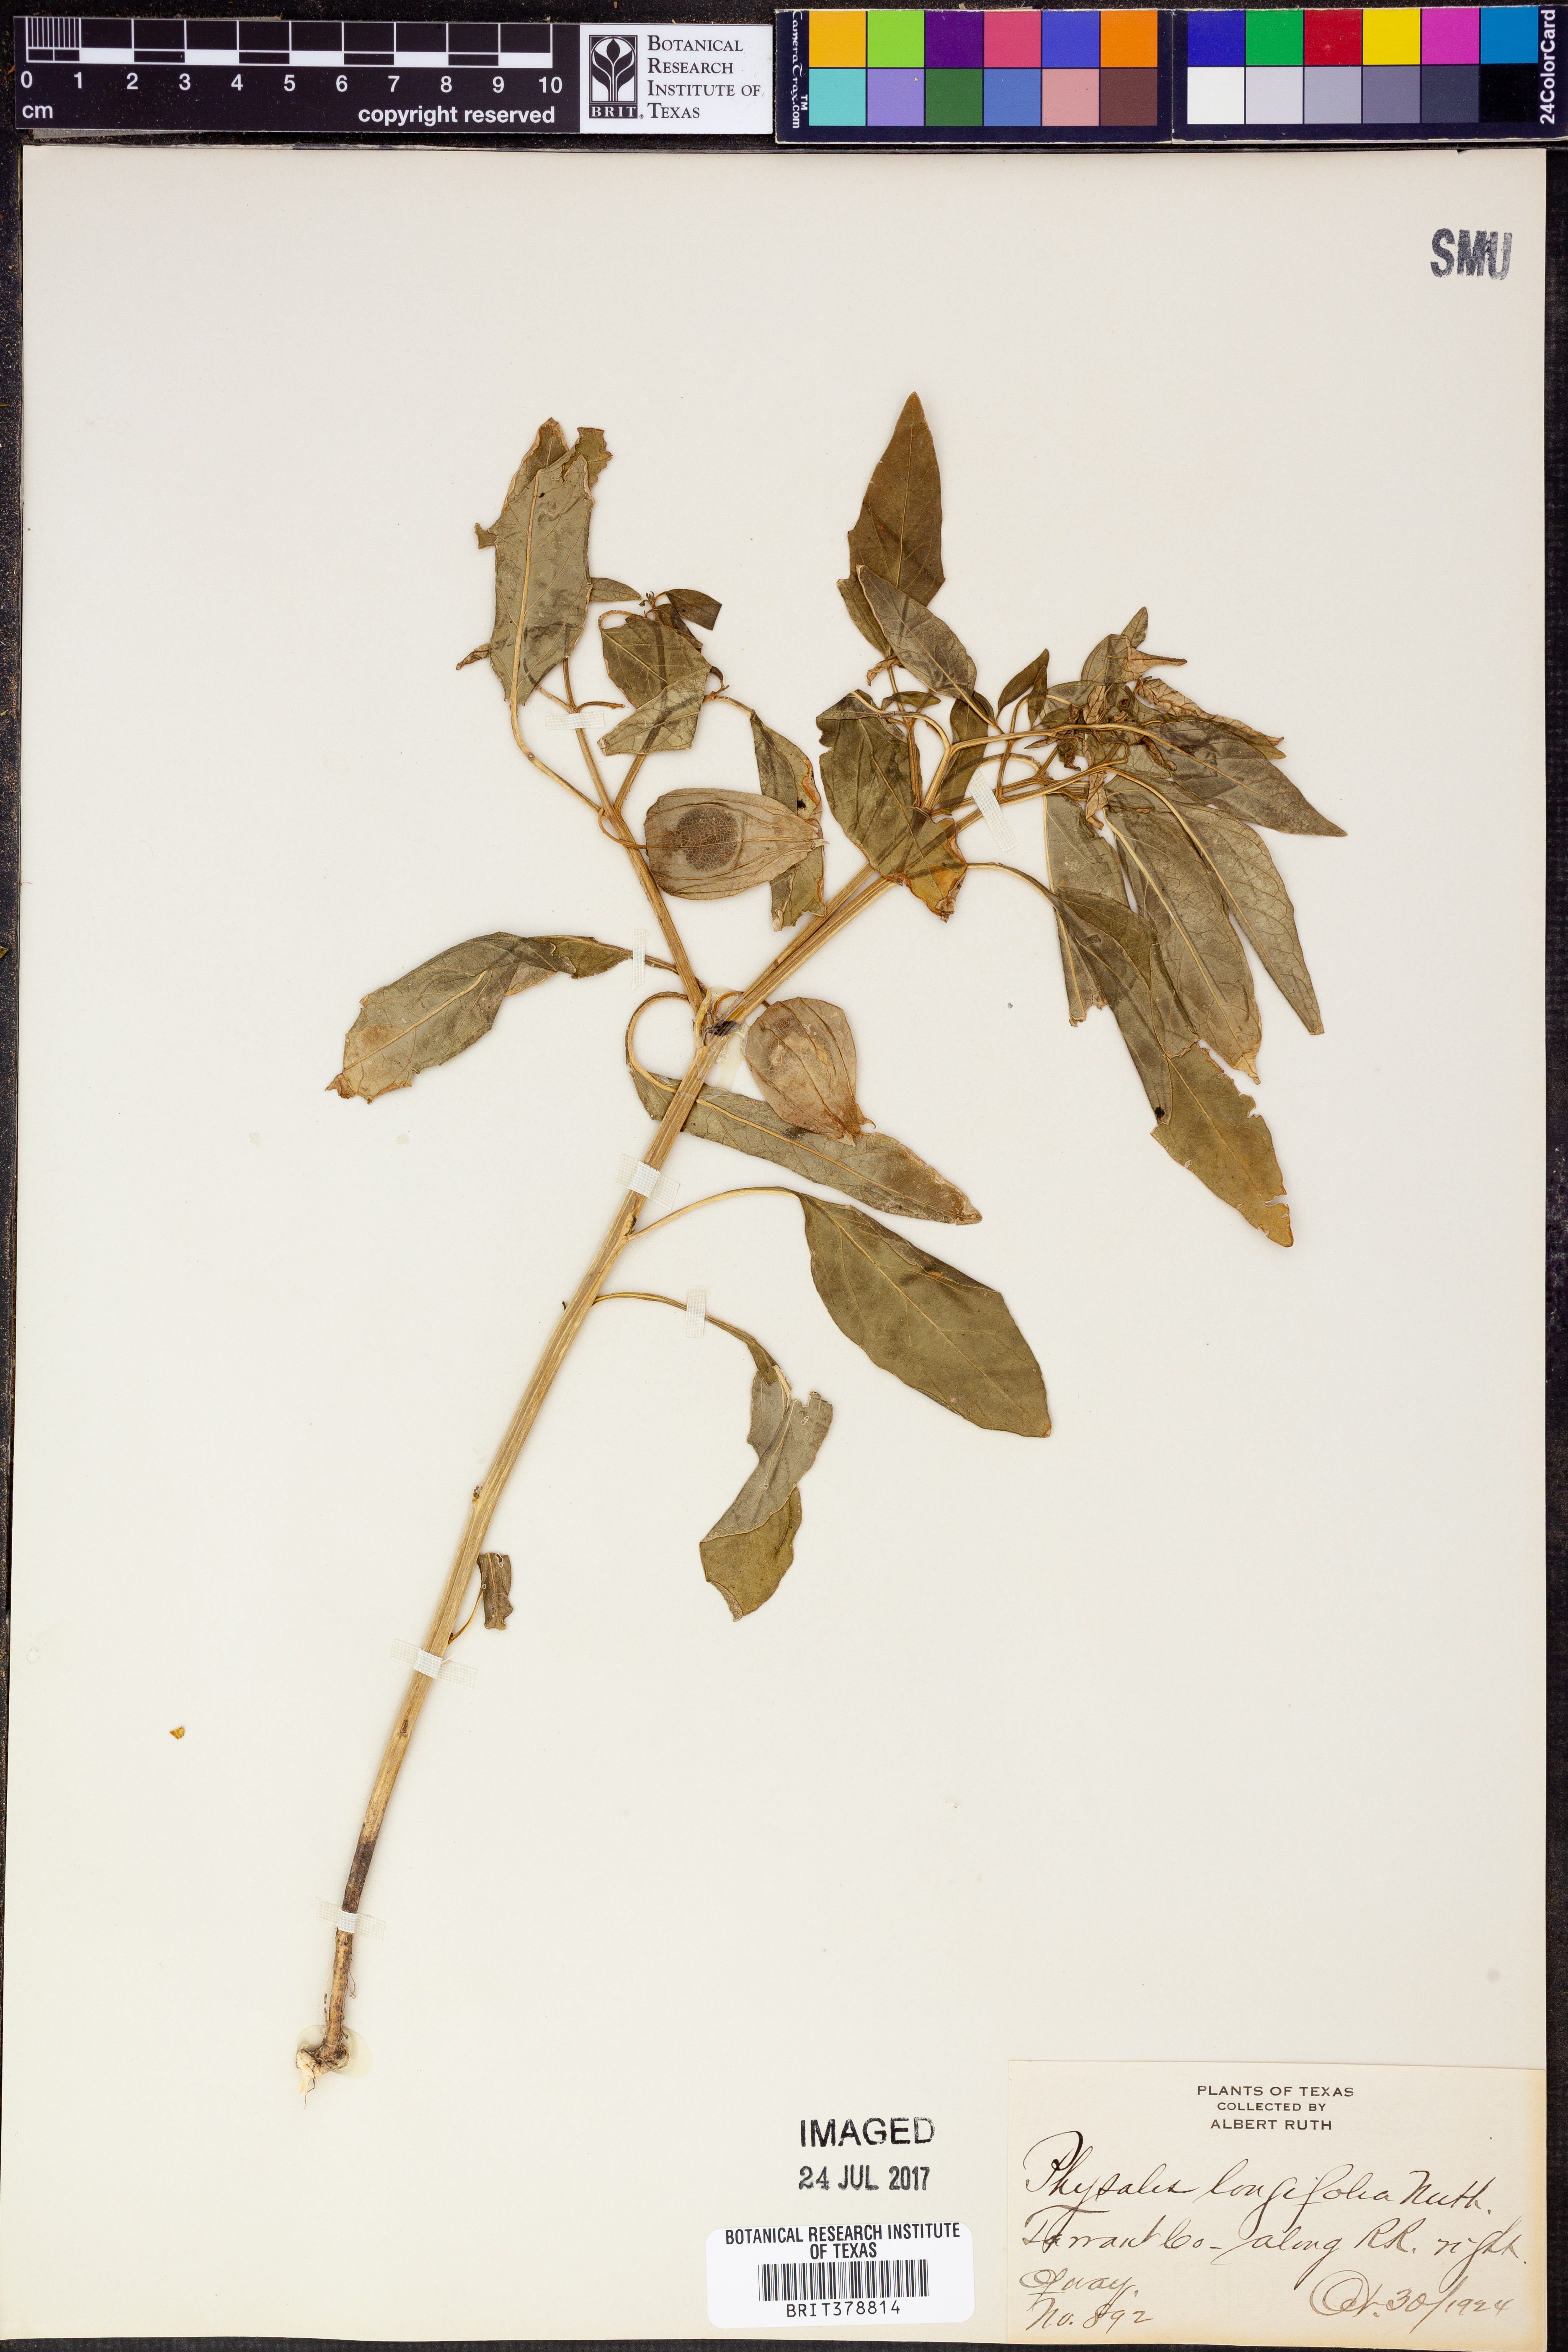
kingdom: Plantae
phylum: Tracheophyta
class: Magnoliopsida
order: Solanales
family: Solanaceae
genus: Physalis
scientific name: Physalis longifolia
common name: Common ground-cherry
